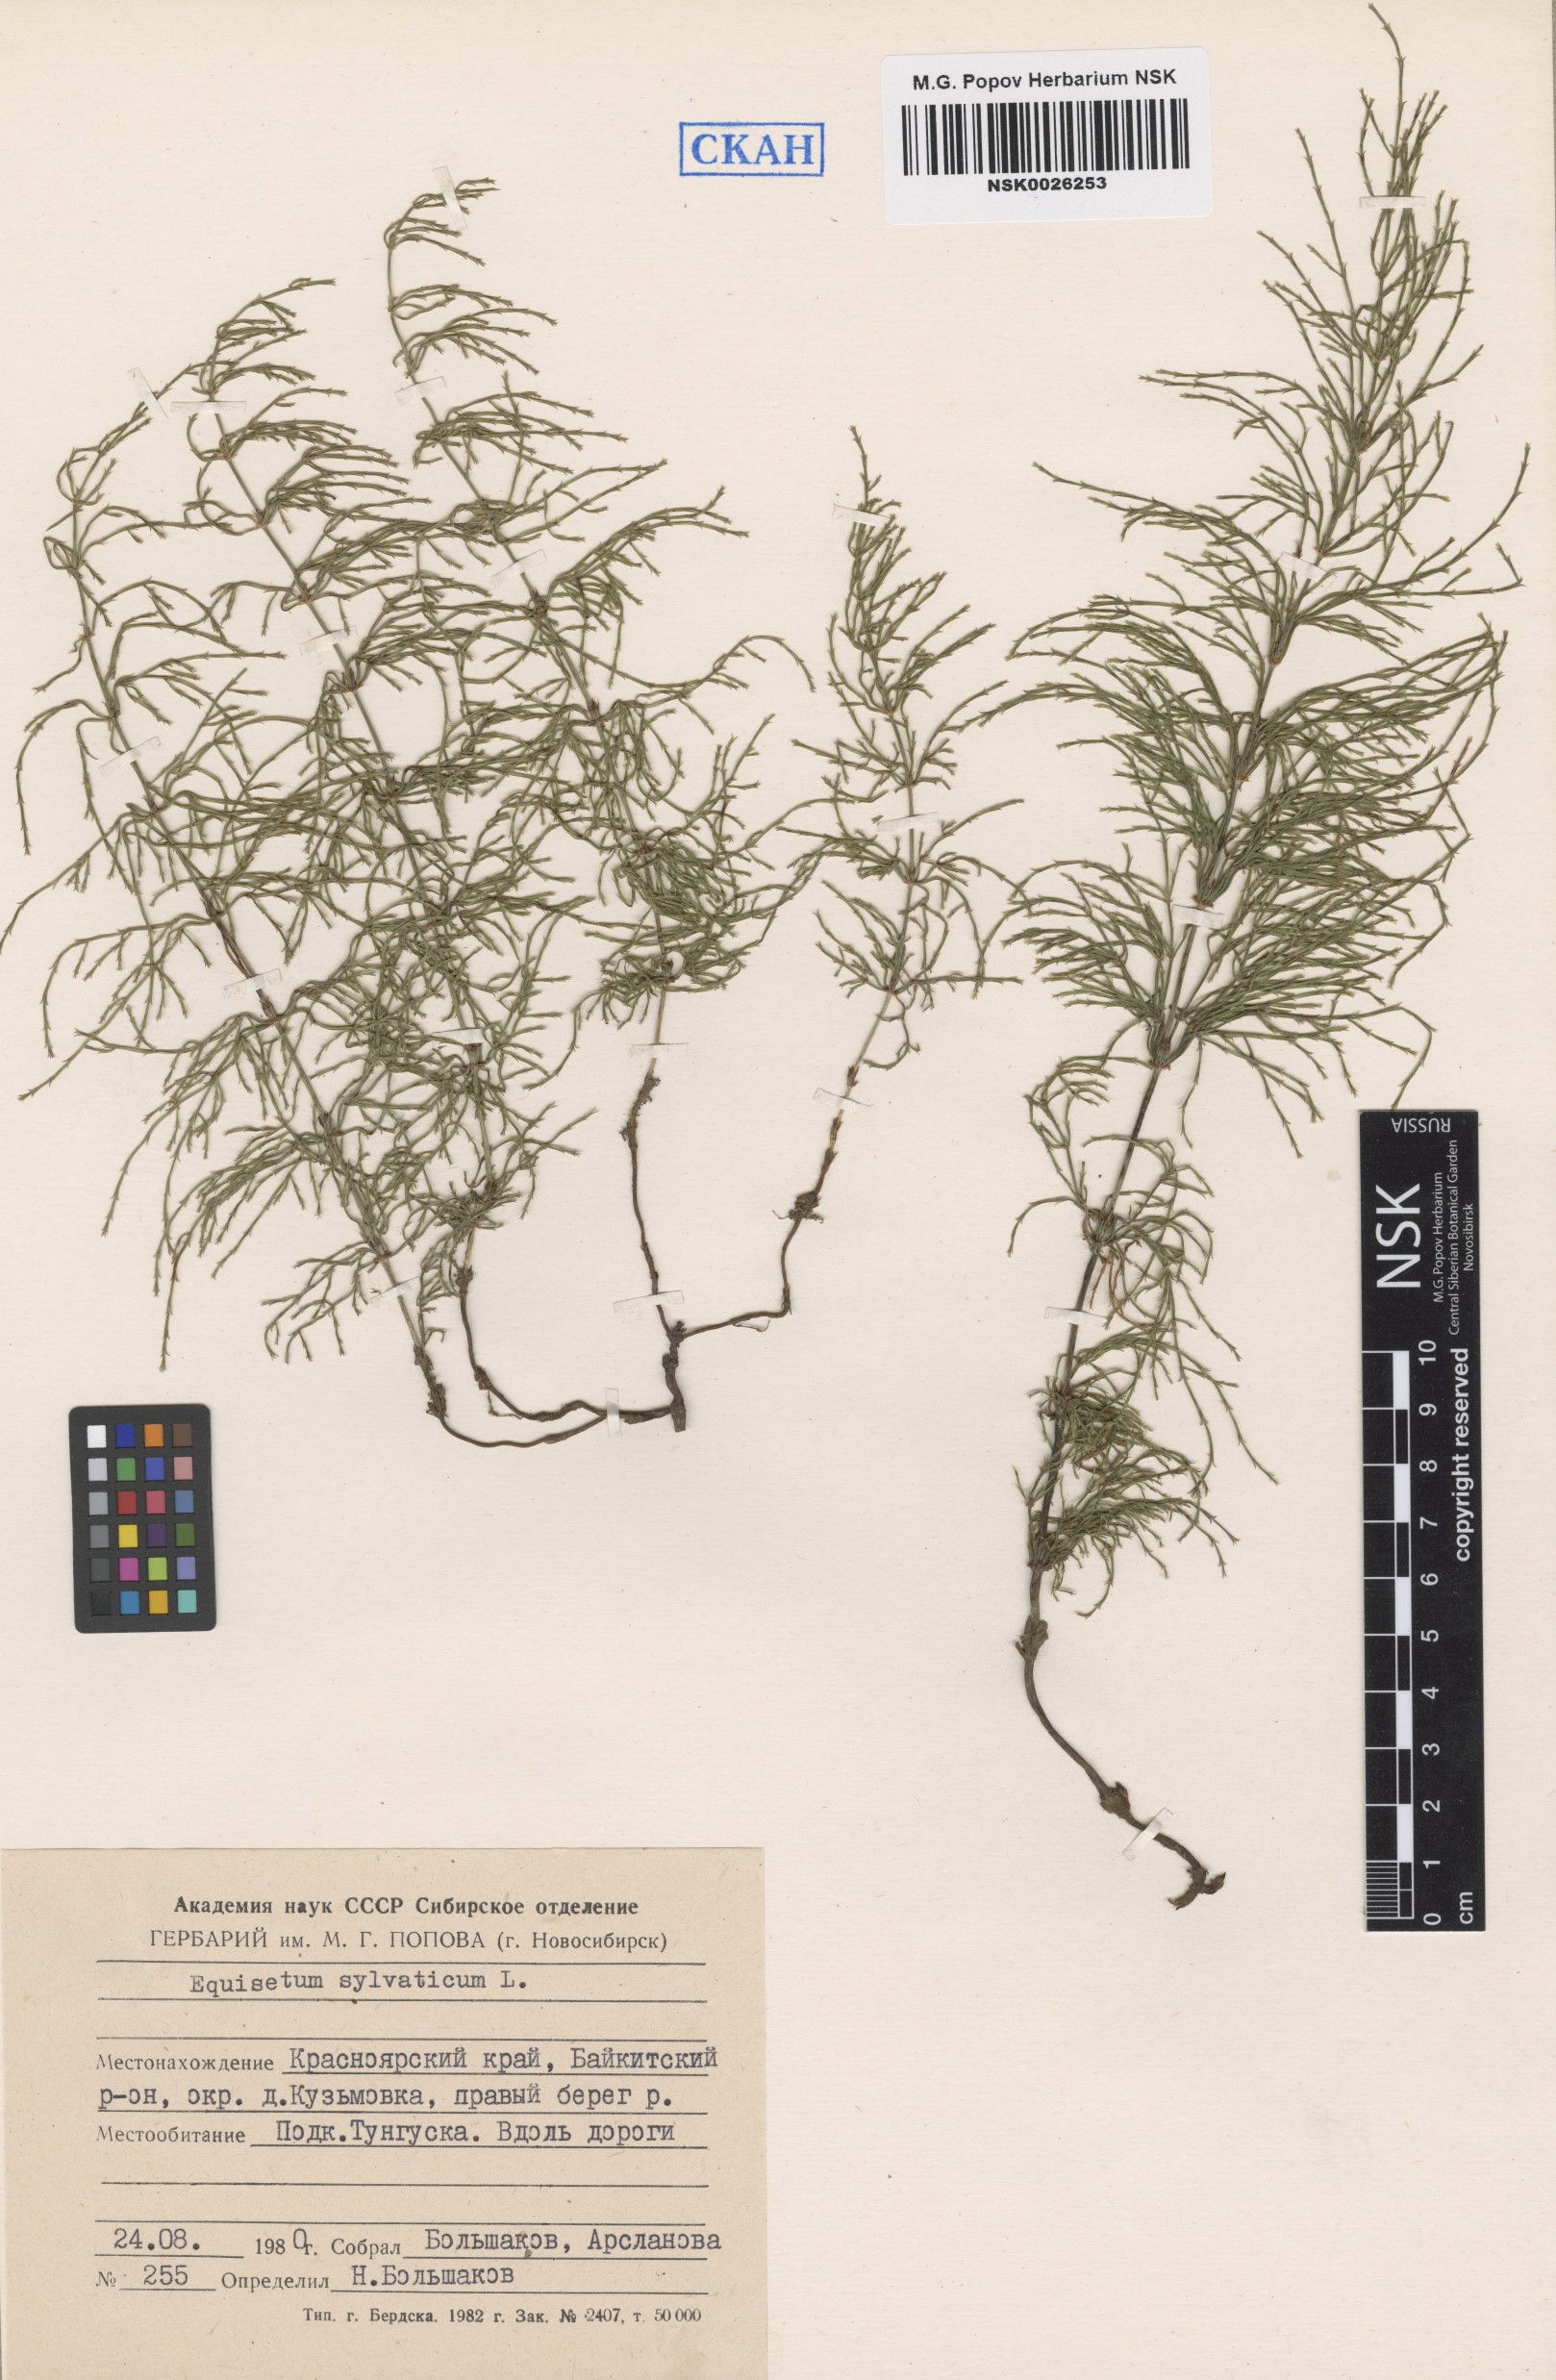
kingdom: Plantae
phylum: Tracheophyta
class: Polypodiopsida
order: Equisetales
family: Equisetaceae
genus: Equisetum
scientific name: Equisetum sylvaticum
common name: Wood horsetail
